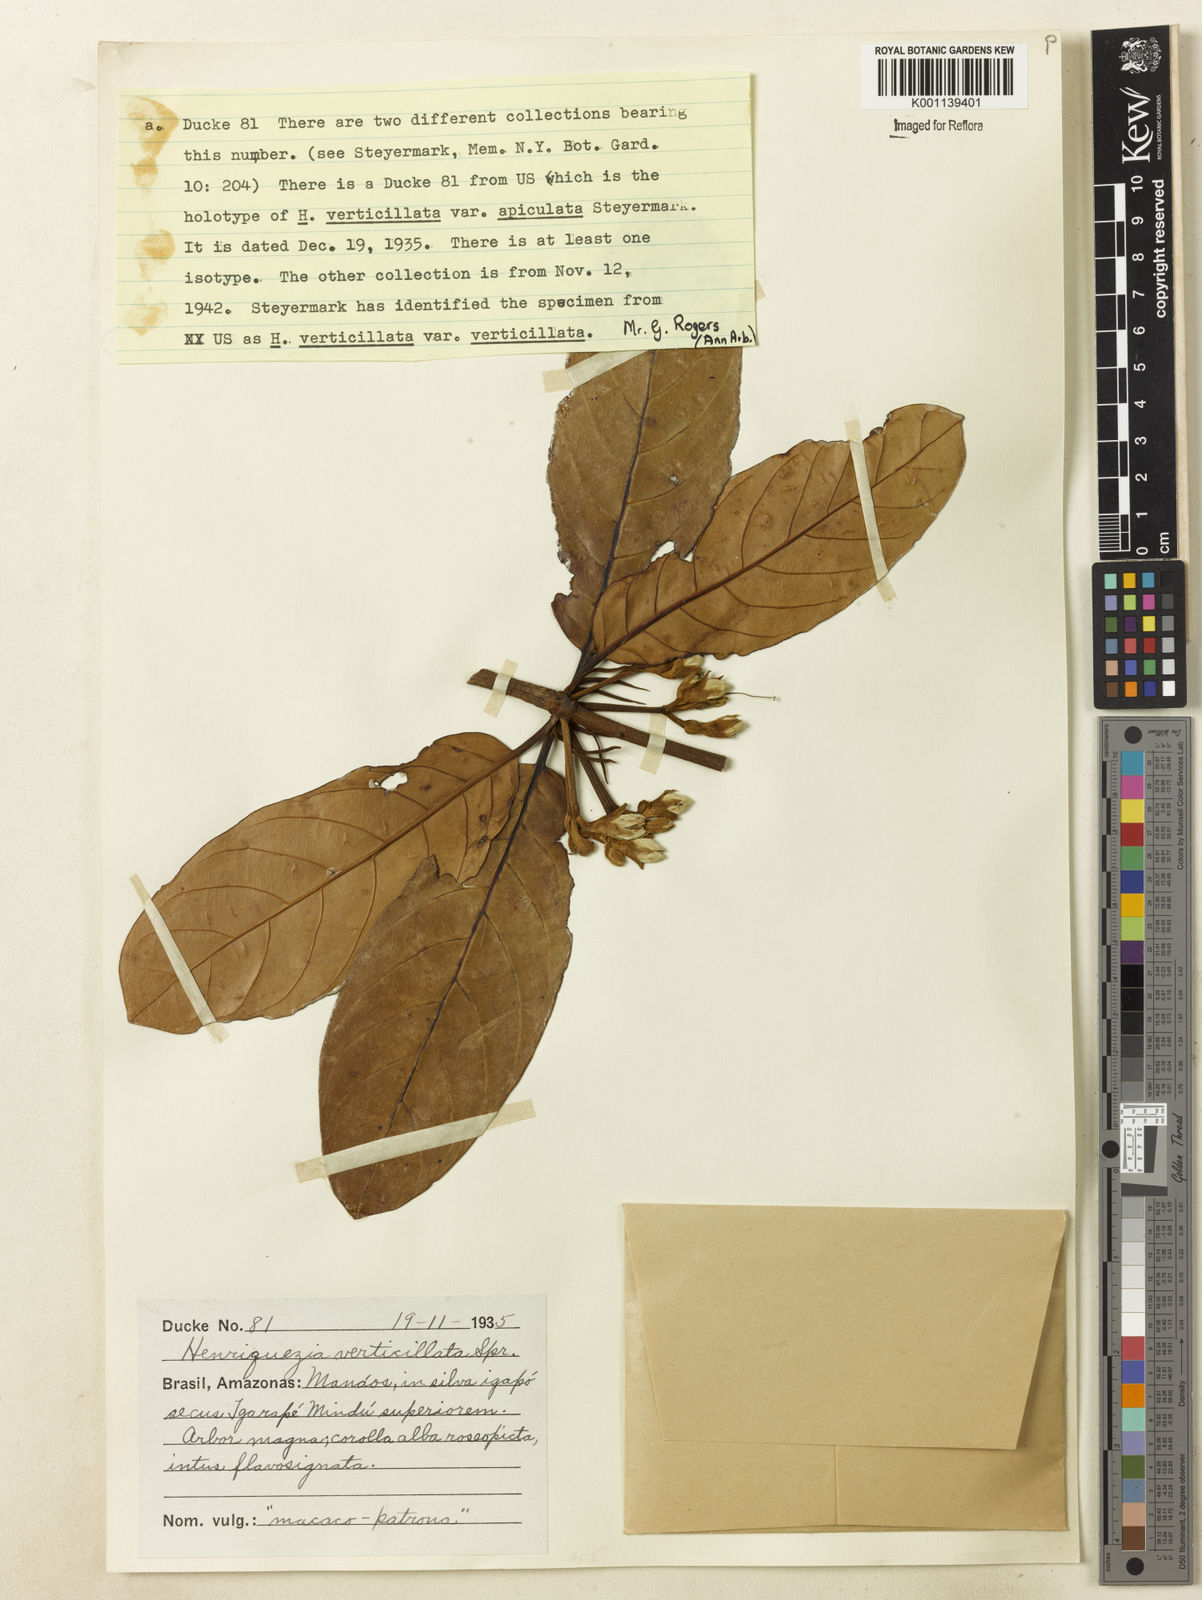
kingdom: Plantae
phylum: Tracheophyta
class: Magnoliopsida
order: Gentianales
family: Rubiaceae
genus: Henriquezia
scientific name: Henriquezia verticillata
